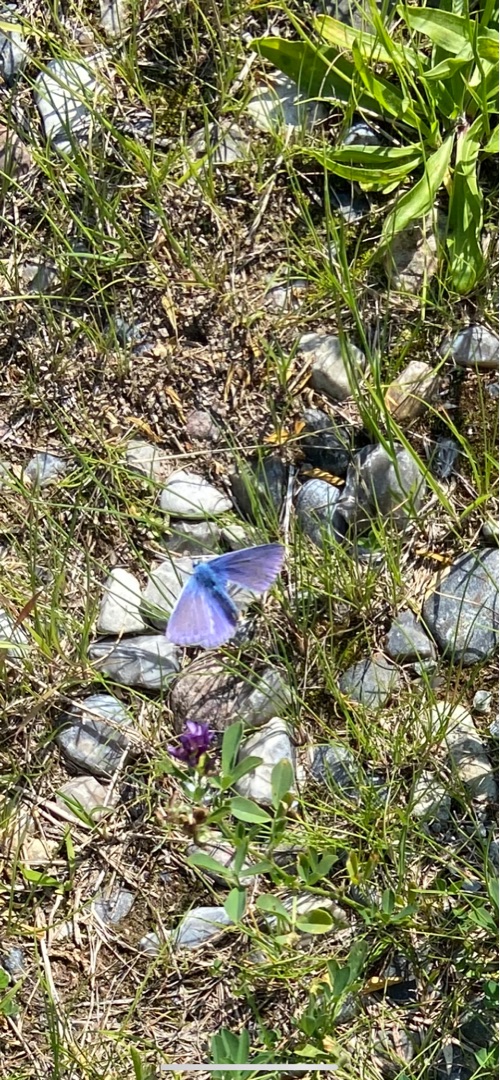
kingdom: Animalia
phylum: Arthropoda
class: Insecta
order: Lepidoptera
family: Lycaenidae
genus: Polyommatus
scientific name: Polyommatus icarus
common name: Almindelig blåfugl
